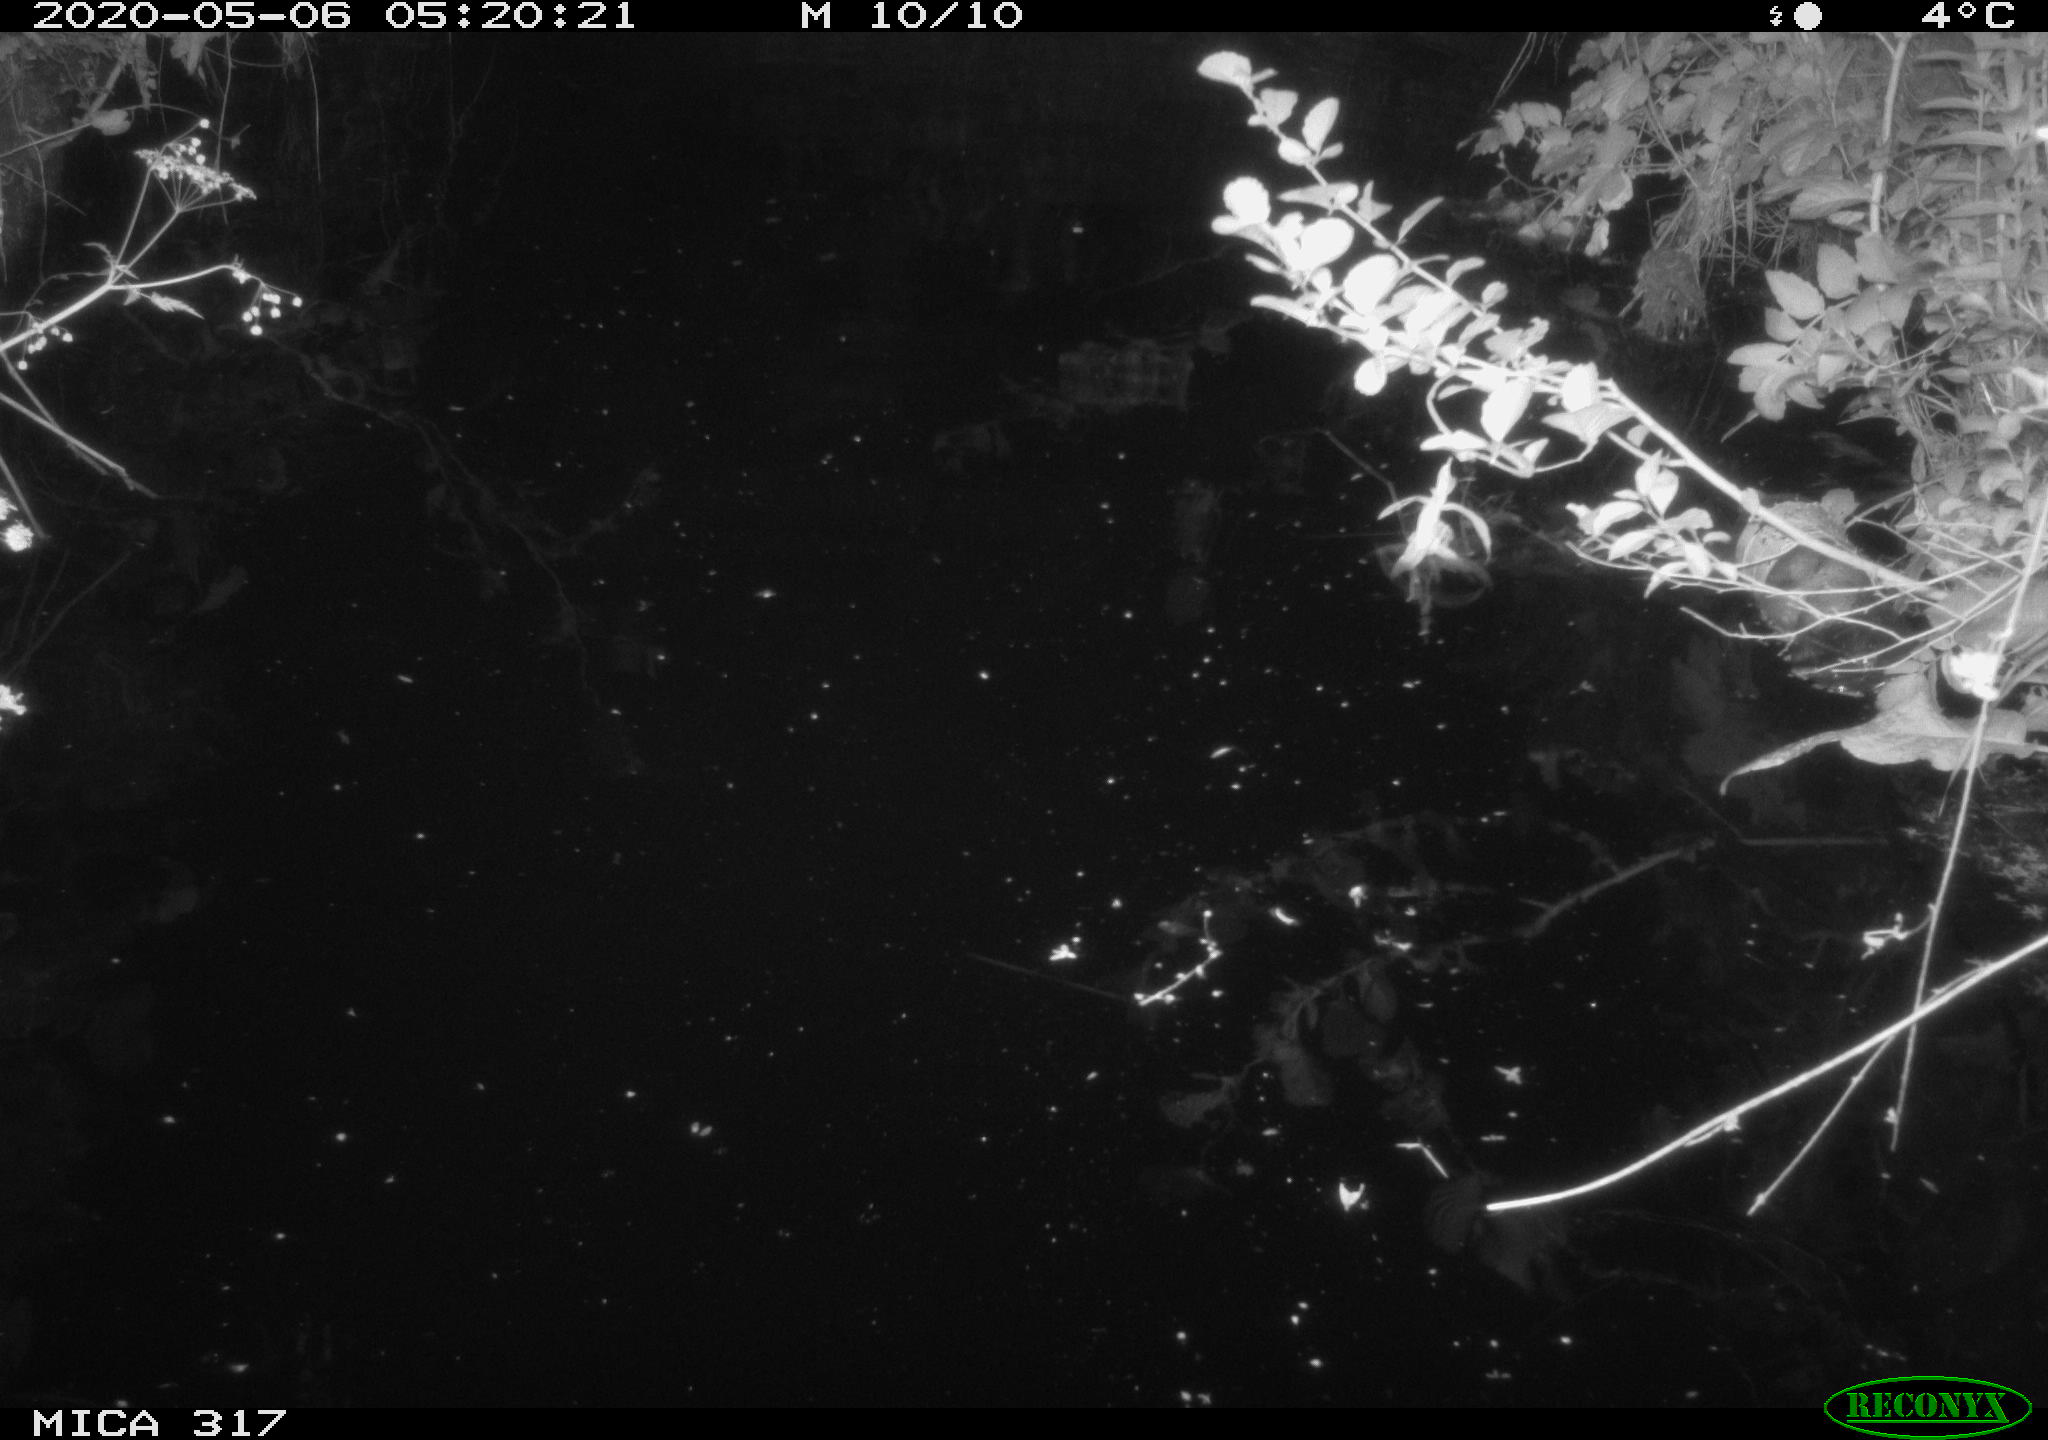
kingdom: Animalia
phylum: Chordata
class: Aves
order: Anseriformes
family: Anatidae
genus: Anas
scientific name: Anas platyrhynchos
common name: Mallard
